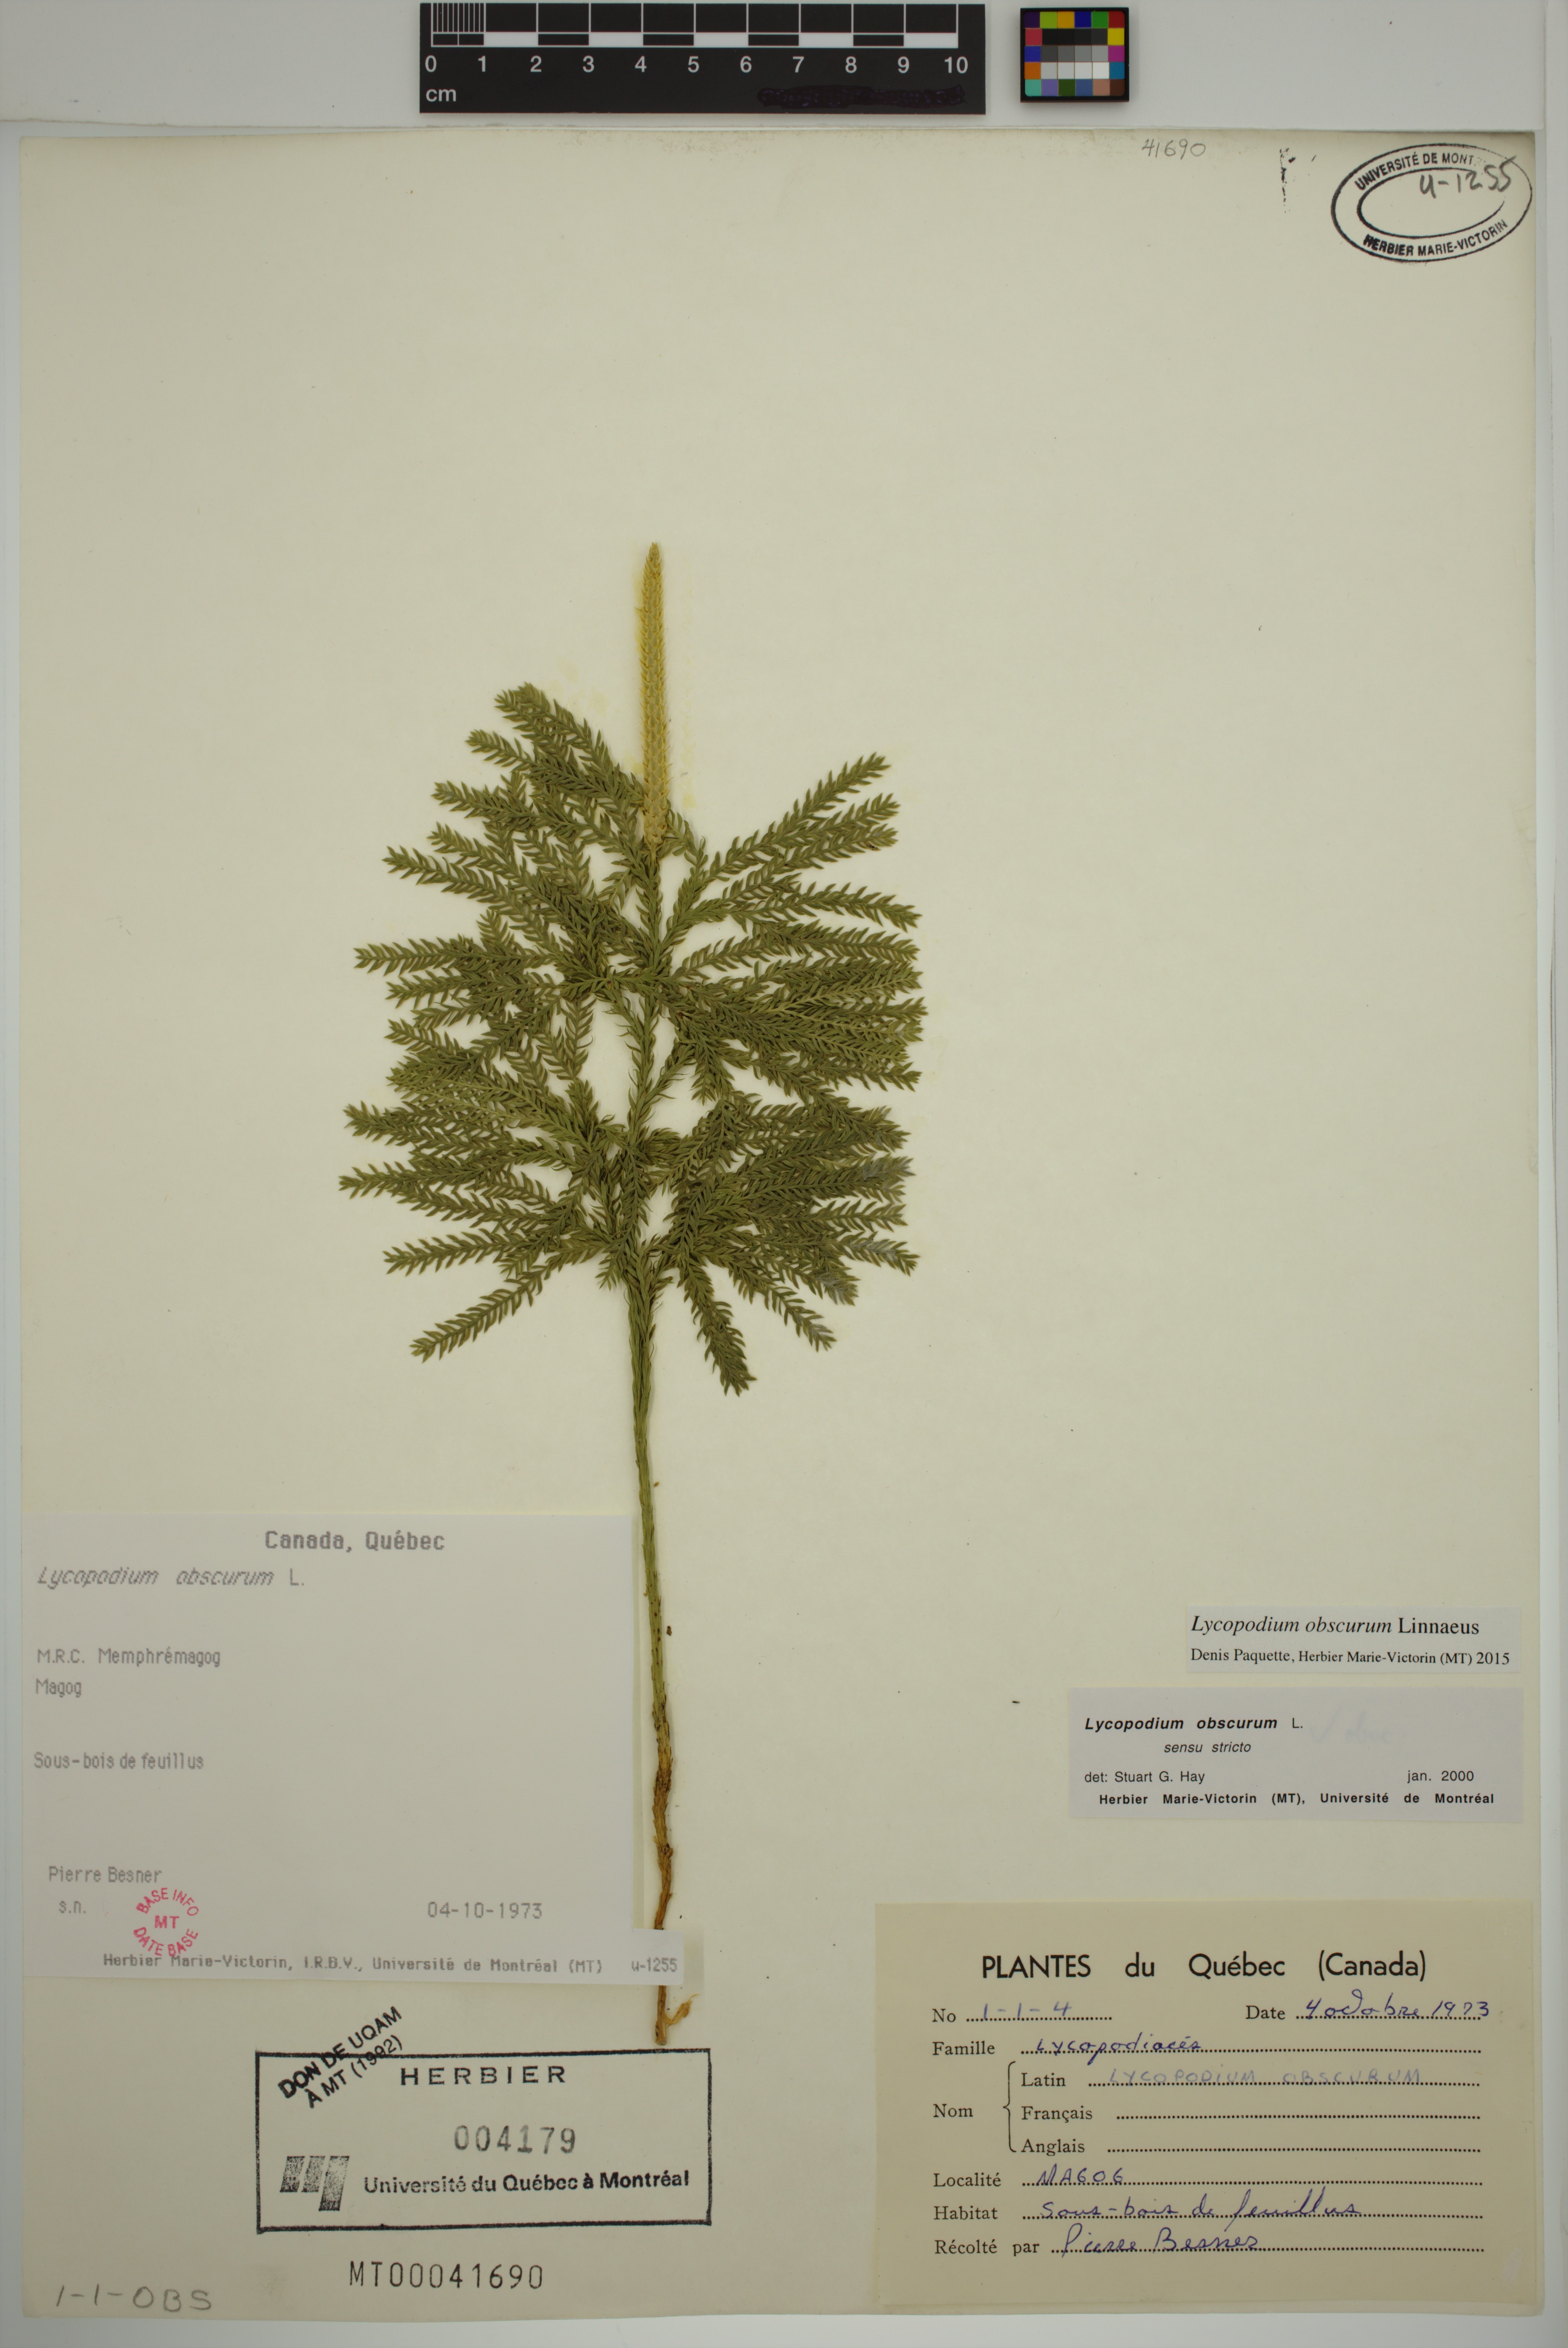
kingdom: Plantae
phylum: Tracheophyta
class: Lycopodiopsida
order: Lycopodiales
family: Lycopodiaceae
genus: Dendrolycopodium
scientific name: Dendrolycopodium obscurum
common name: Common ground-pine
